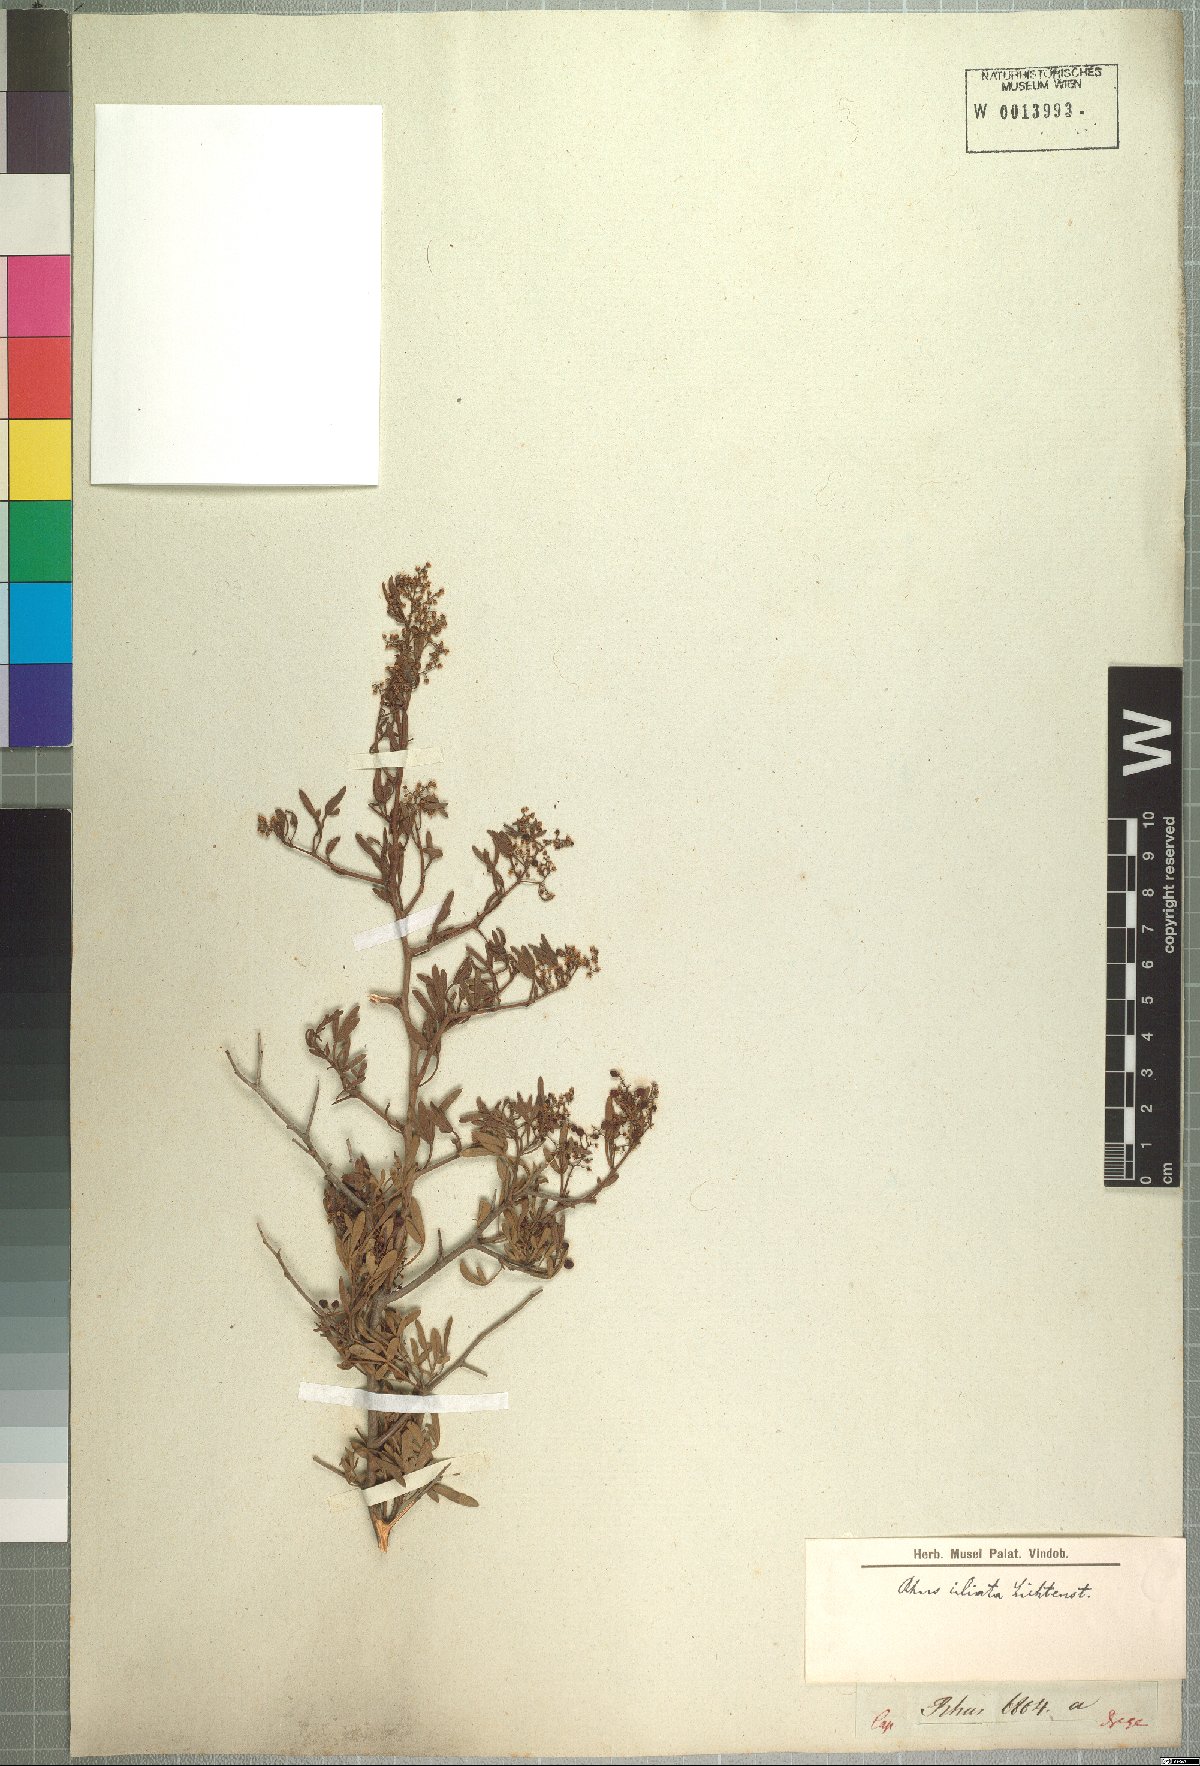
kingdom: Plantae
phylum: Tracheophyta
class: Magnoliopsida
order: Sapindales
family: Anacardiaceae
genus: Searsia
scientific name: Searsia ciliata
